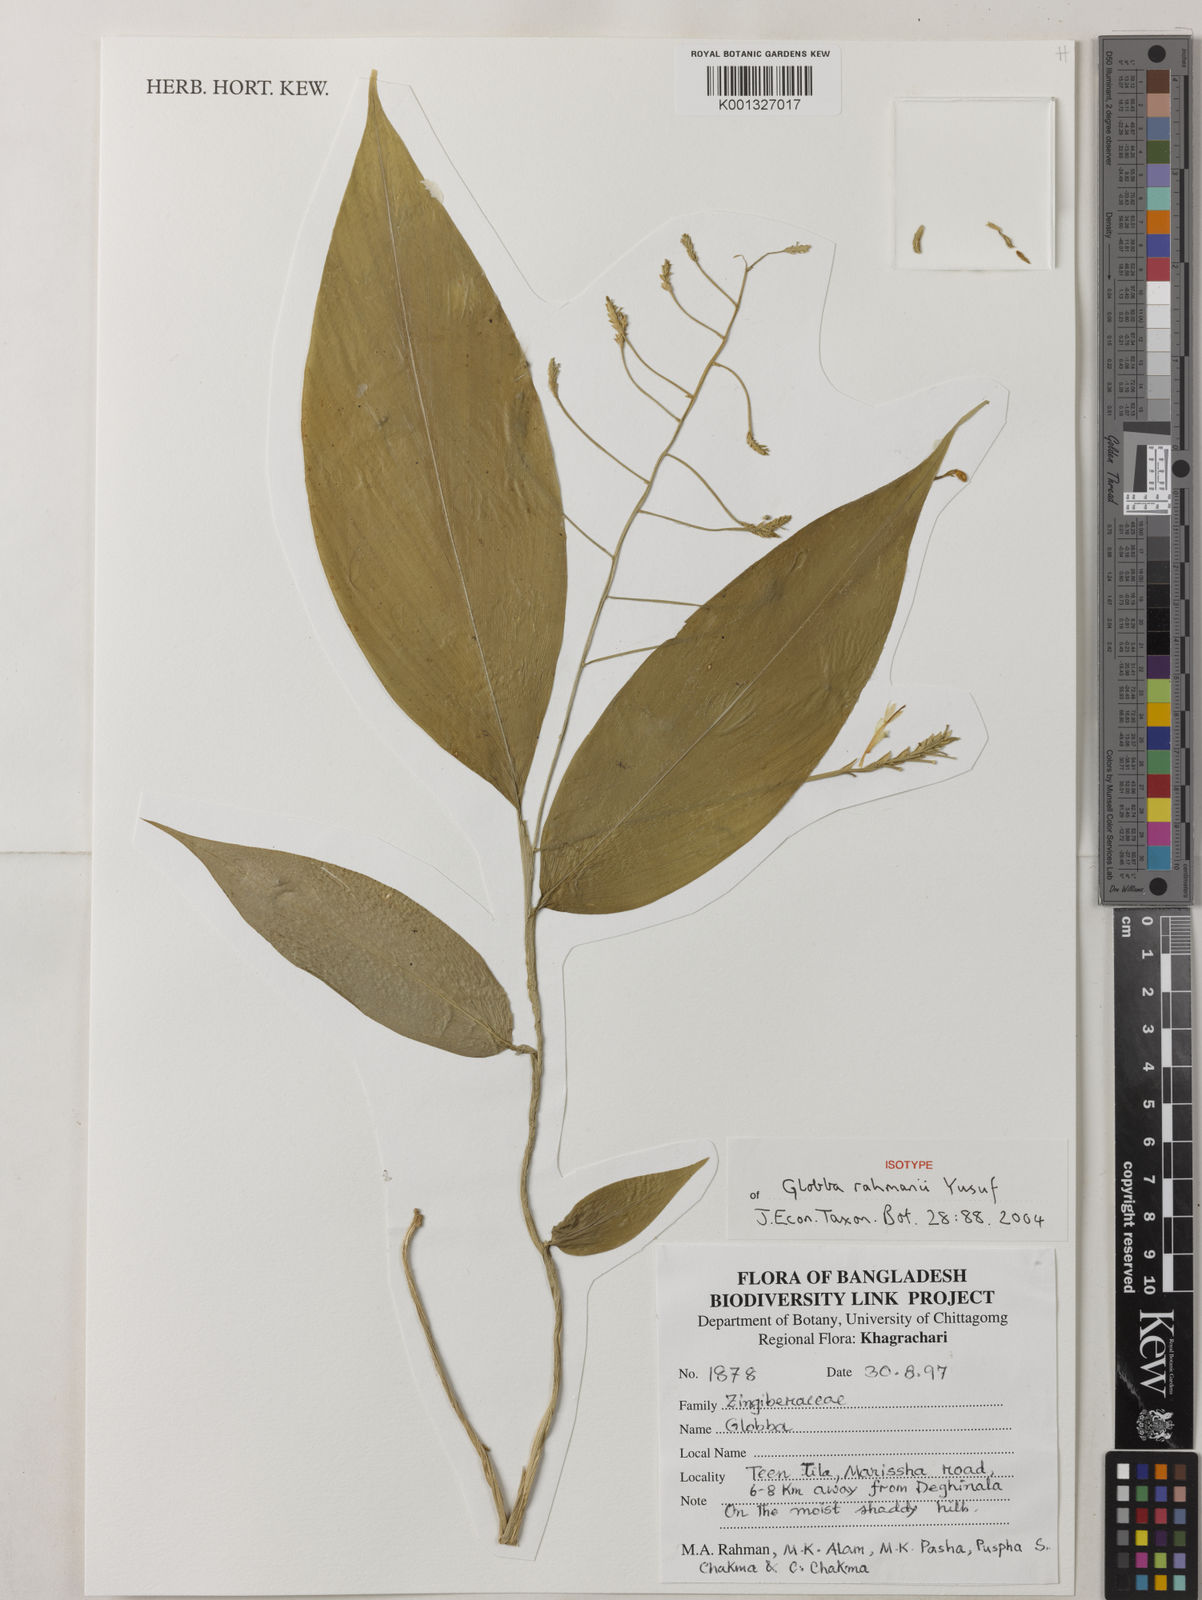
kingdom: Plantae
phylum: Tracheophyta
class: Liliopsida
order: Zingiberales
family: Zingiberaceae
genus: Globba
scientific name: Globba rahmanii
